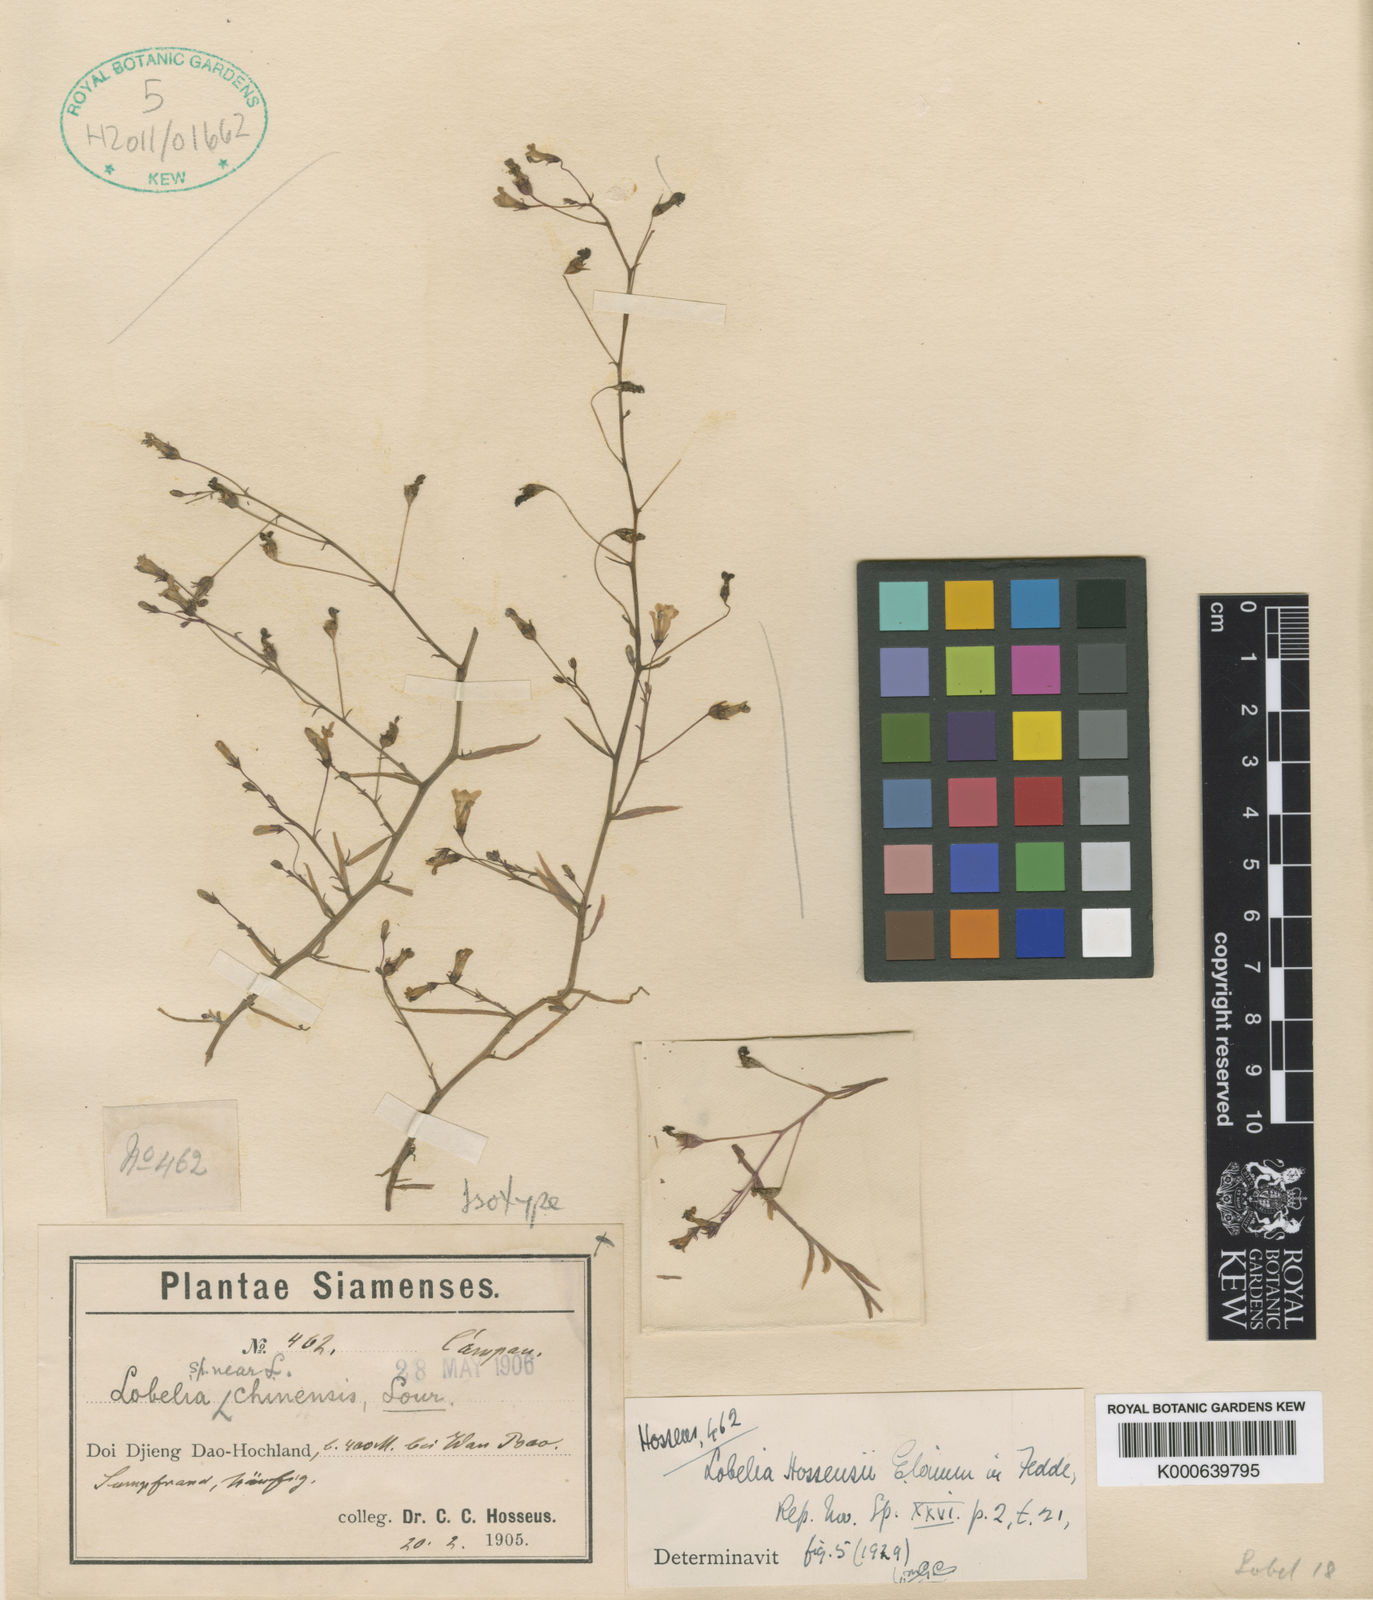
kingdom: Plantae
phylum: Tracheophyta
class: Magnoliopsida
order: Asterales
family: Campanulaceae
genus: Lobelia
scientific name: Lobelia alsinoides
